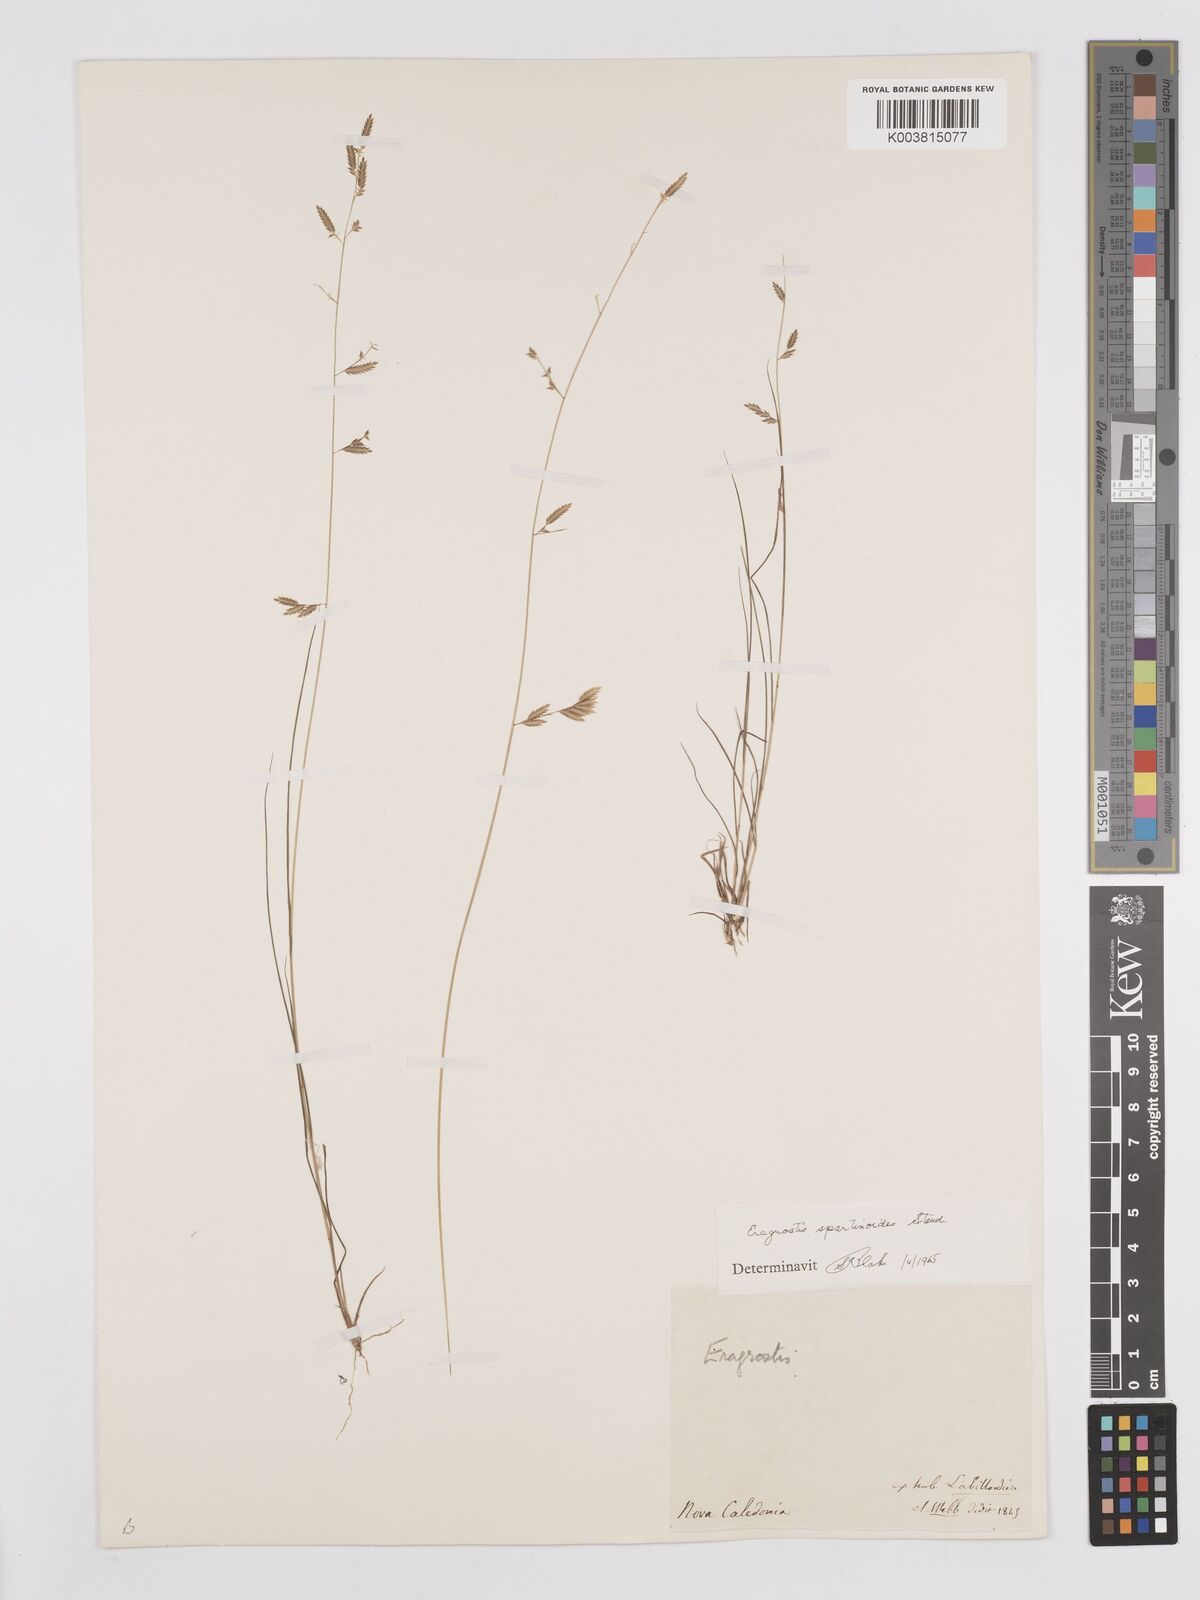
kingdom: Plantae
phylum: Tracheophyta
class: Liliopsida
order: Poales
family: Poaceae
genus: Eragrostis
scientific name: Eragrostis brownii
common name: Lovegrass
